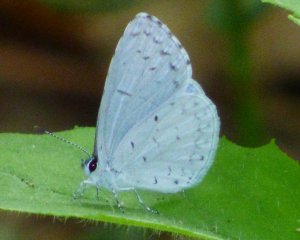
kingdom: Animalia
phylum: Arthropoda
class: Insecta
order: Lepidoptera
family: Lycaenidae
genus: Cyaniris
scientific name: Cyaniris neglecta
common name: Summer Azure
